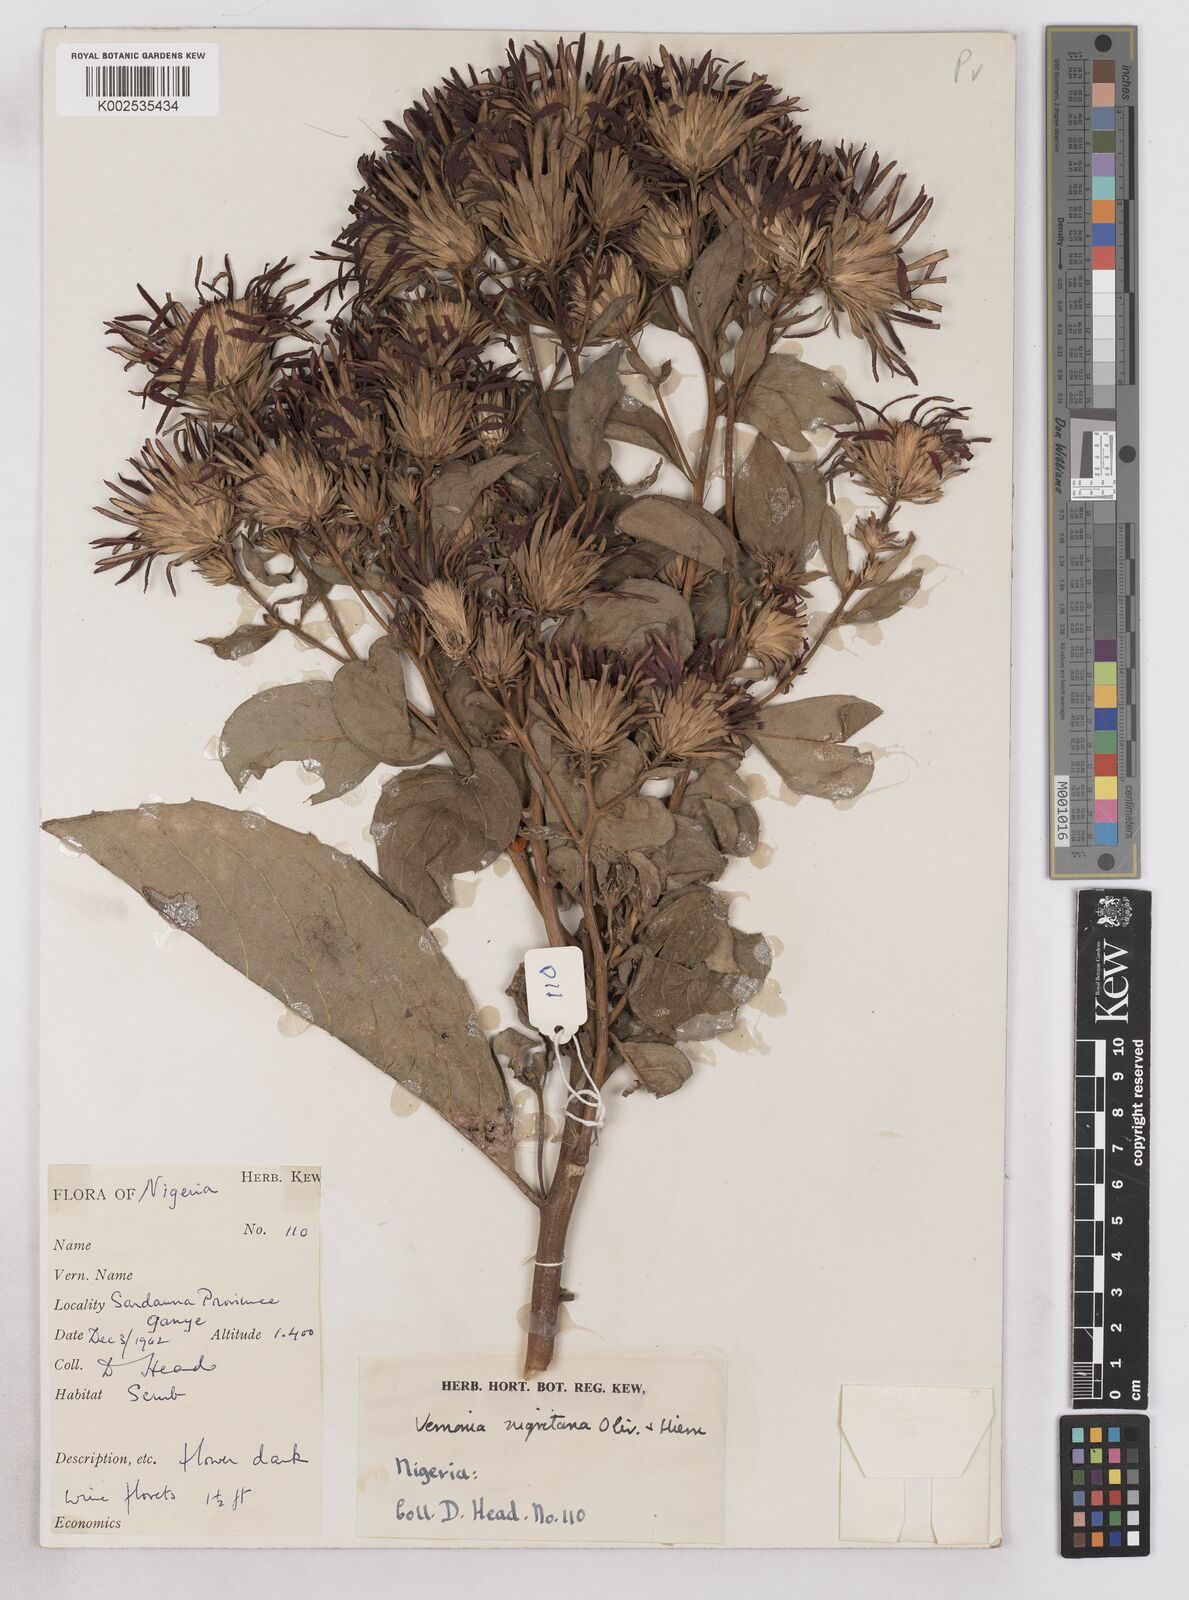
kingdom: Plantae
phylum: Tracheophyta
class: Magnoliopsida
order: Asterales
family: Asteraceae
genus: Linzia
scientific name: Linzia nigritiana
